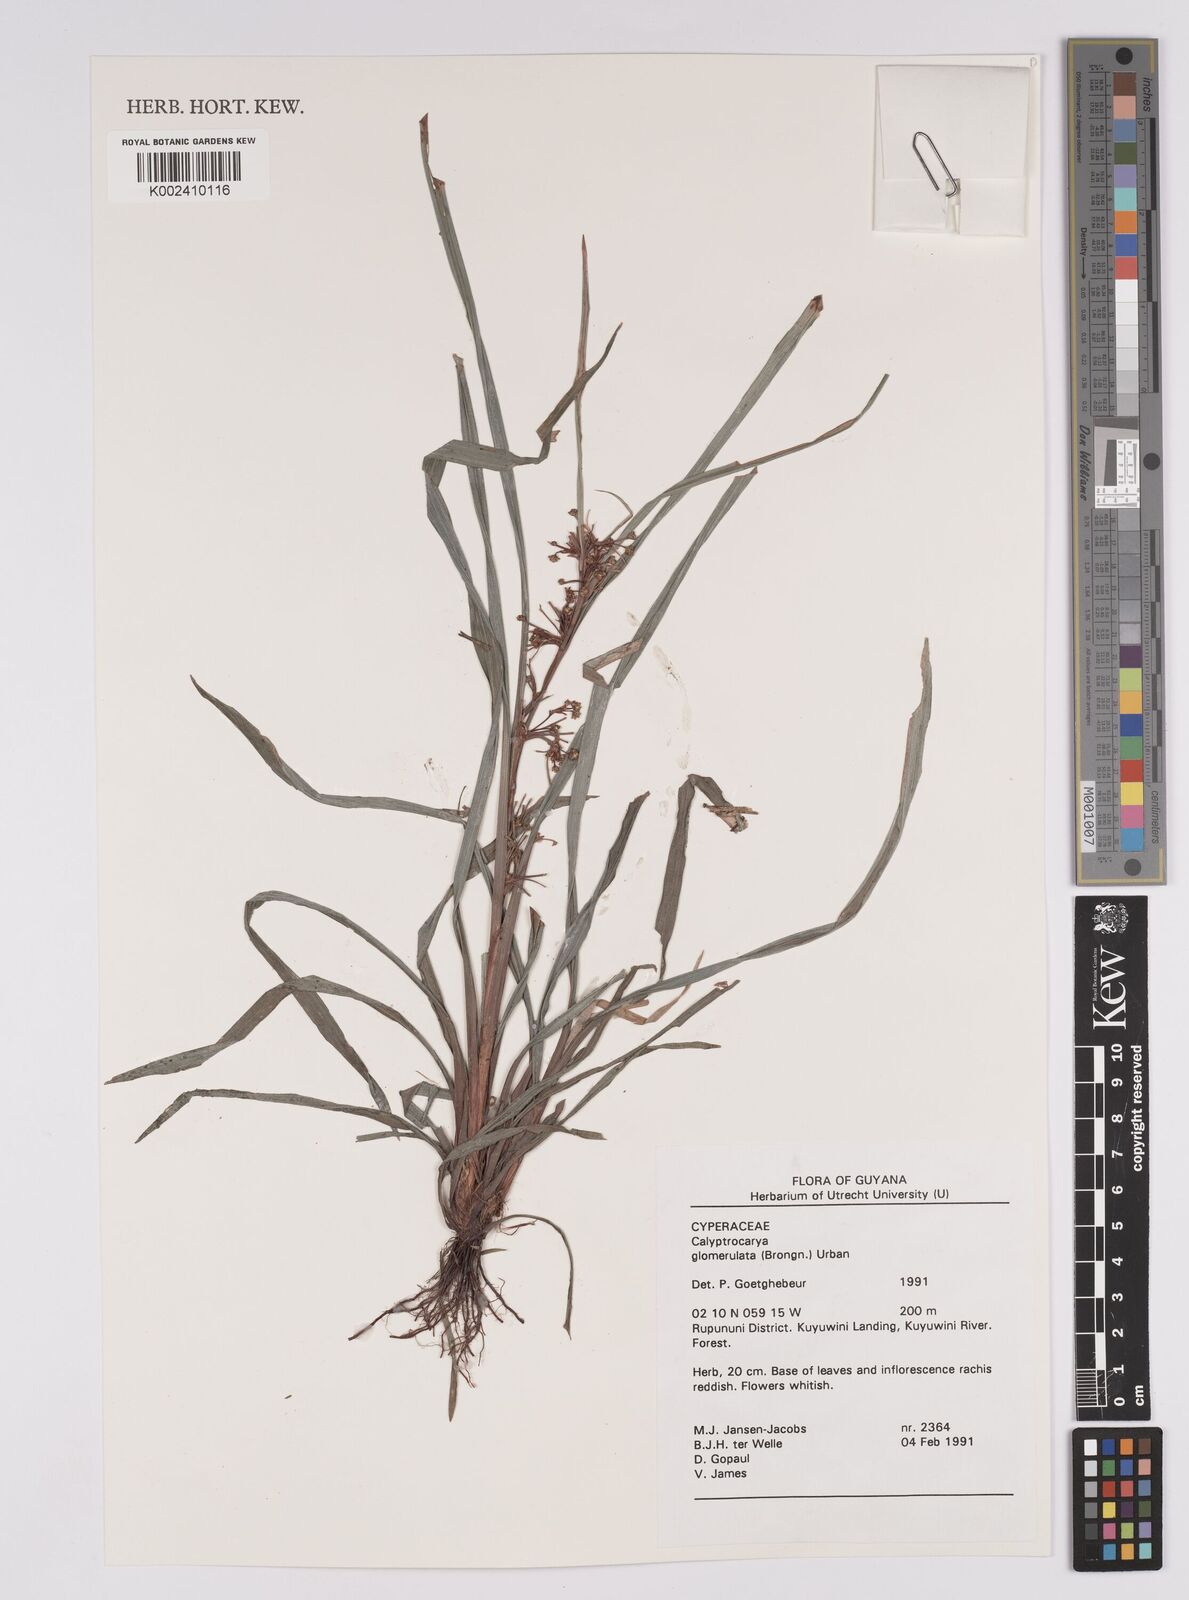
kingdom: Plantae
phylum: Tracheophyta
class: Liliopsida
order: Poales
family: Cyperaceae
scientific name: Cyperaceae
